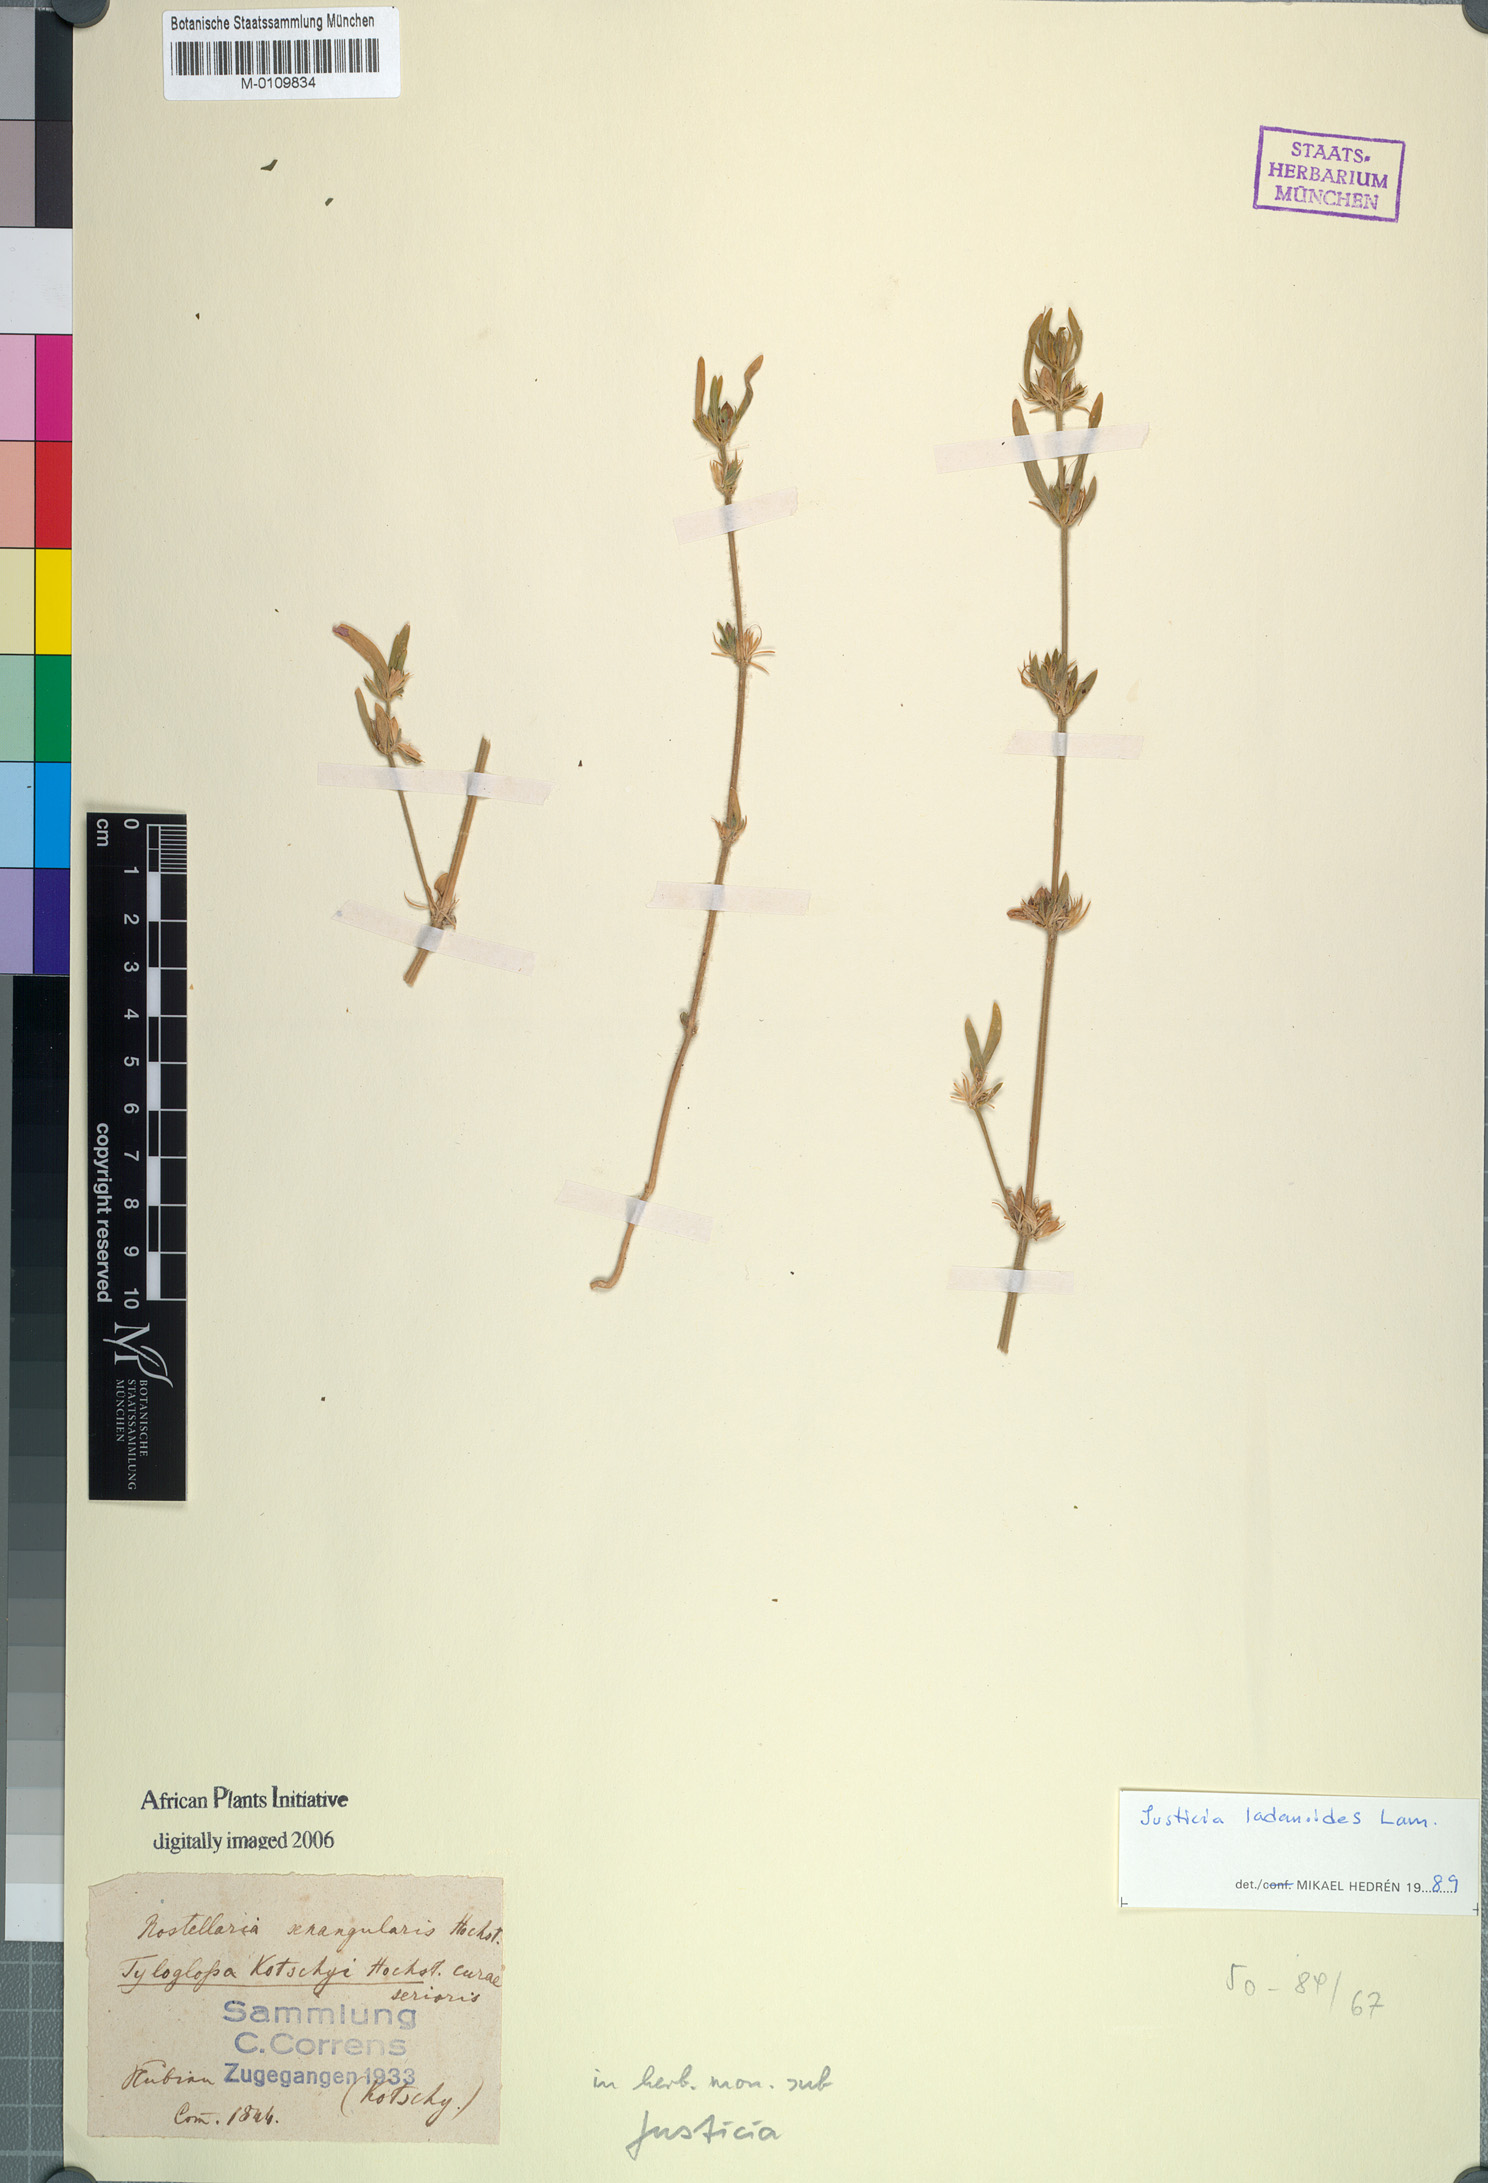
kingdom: Plantae
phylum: Tracheophyta
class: Magnoliopsida
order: Lamiales
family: Acanthaceae
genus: Justicia
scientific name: Justicia ladanoides
